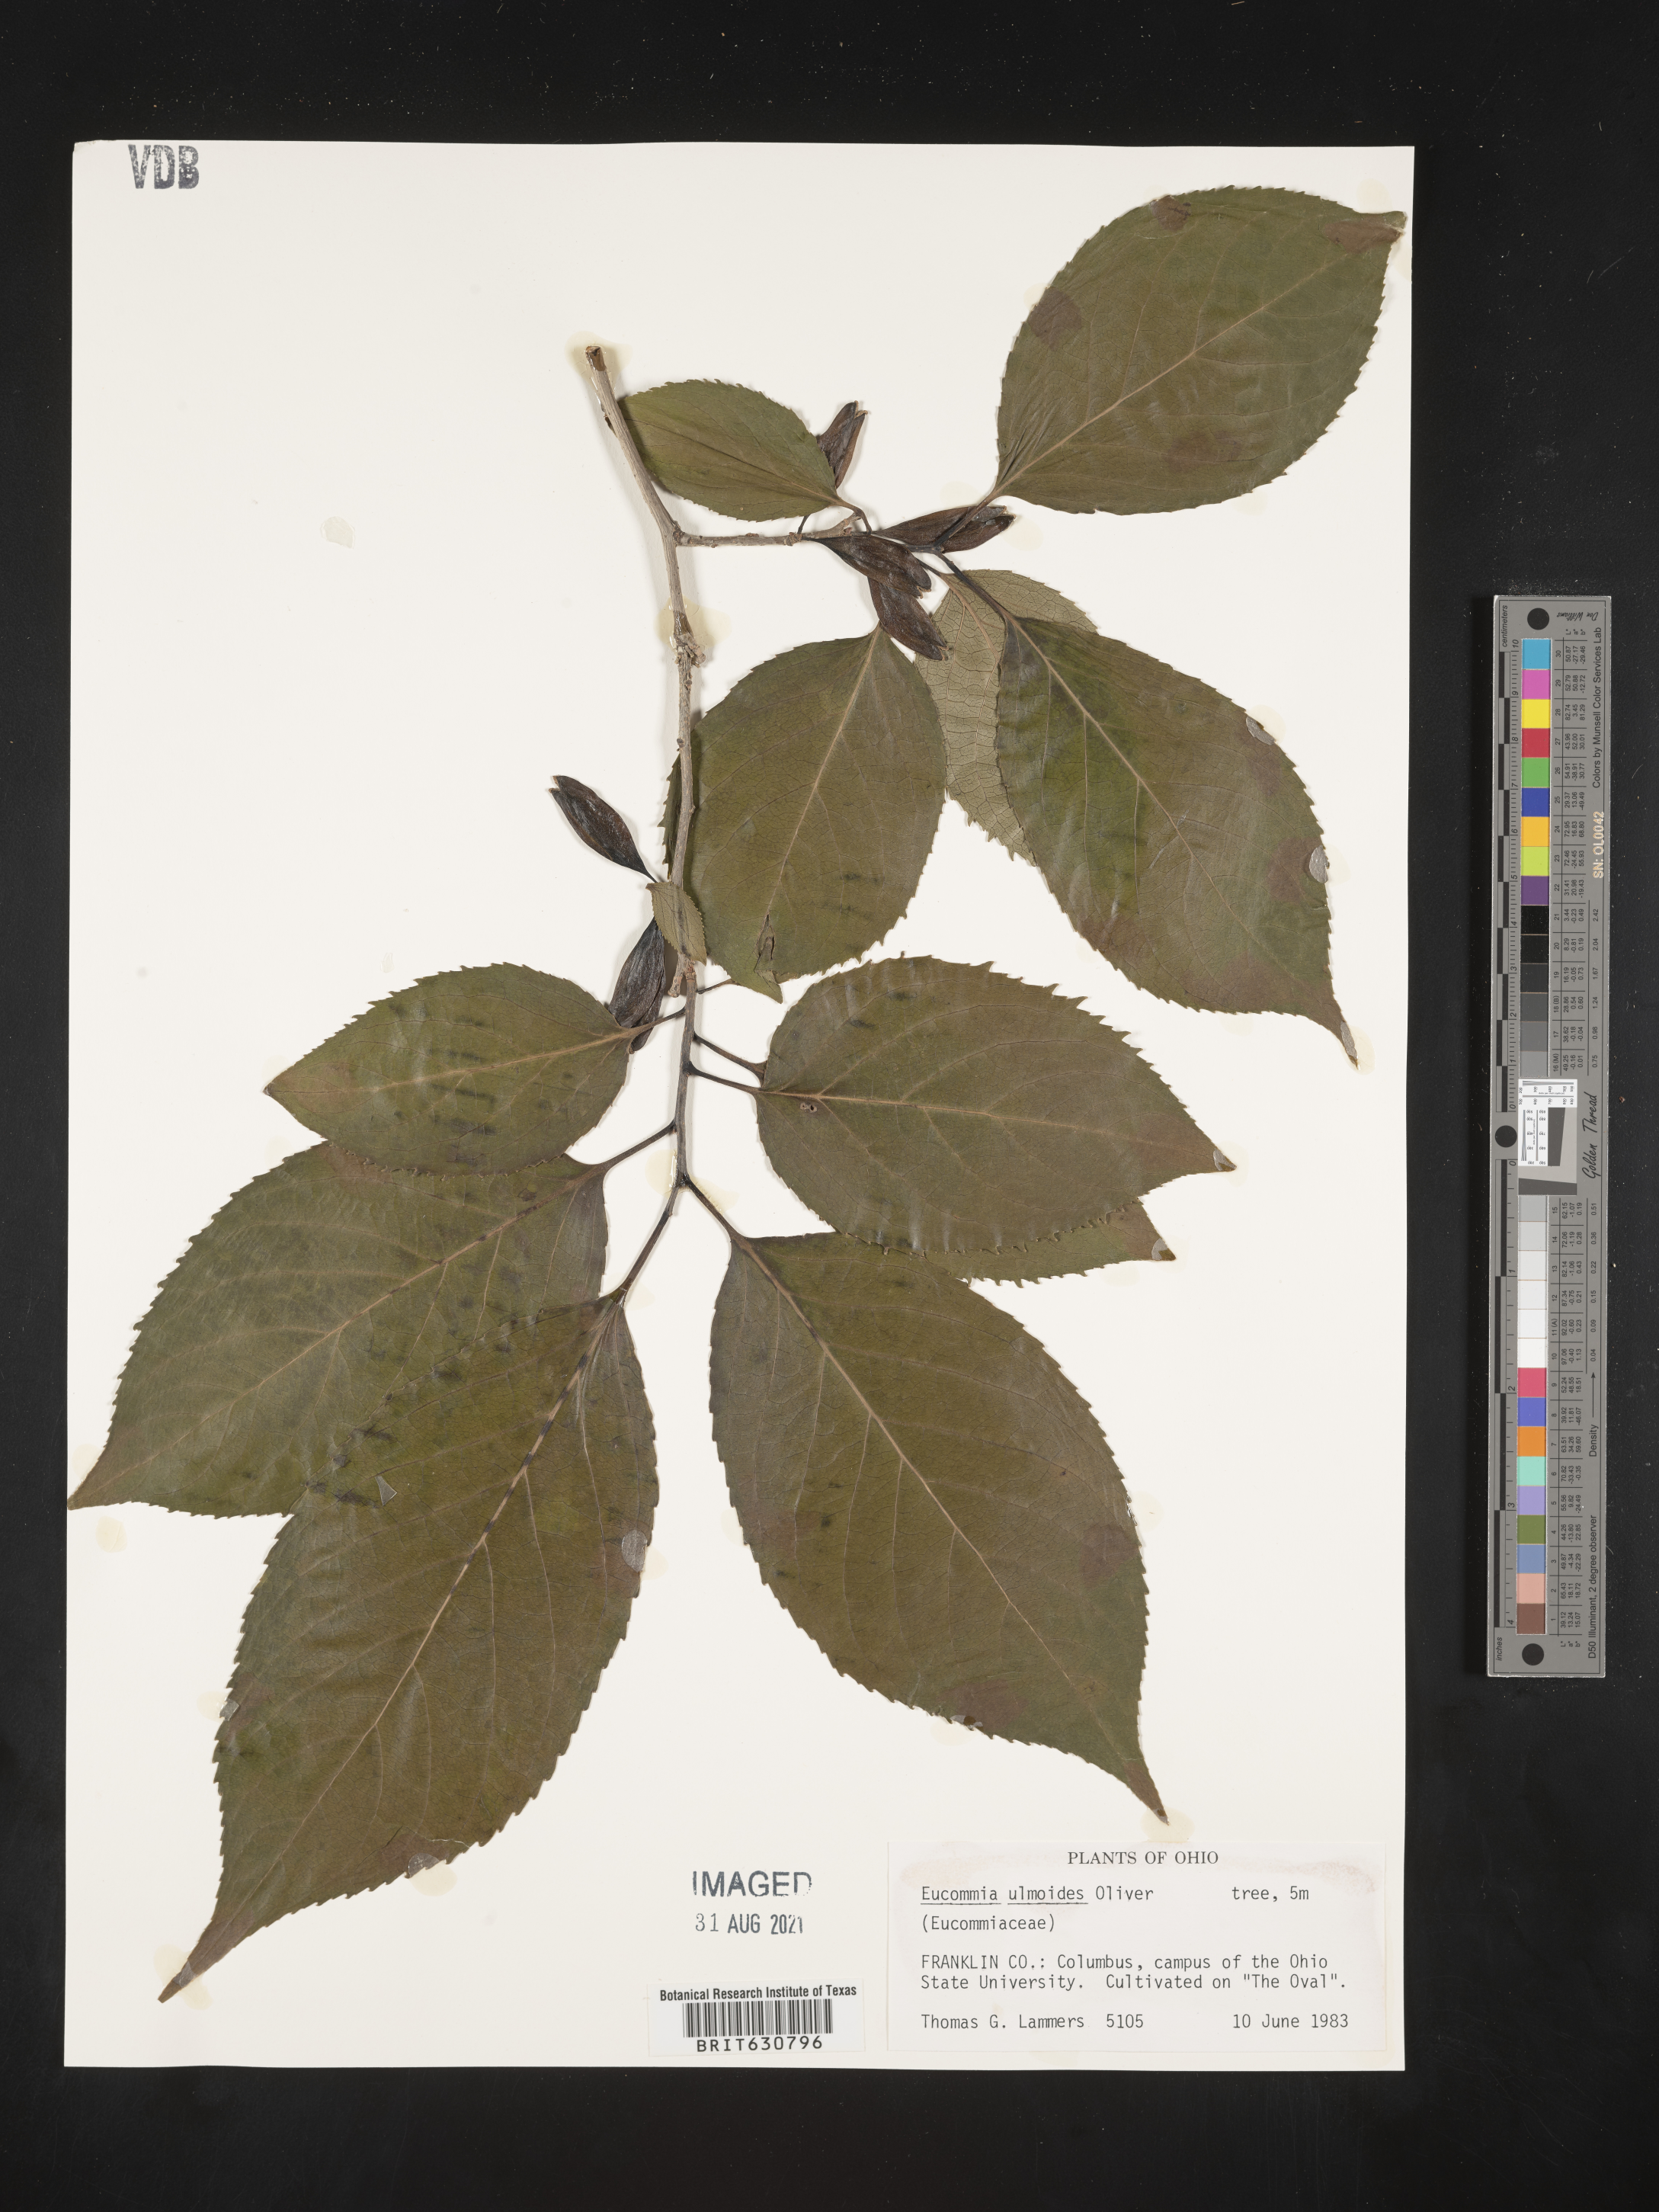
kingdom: Plantae
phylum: Tracheophyta
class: Magnoliopsida
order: Garryales
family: Eucommiaceae
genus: Eucommia
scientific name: Eucommia ulmoides
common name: Woody plant
